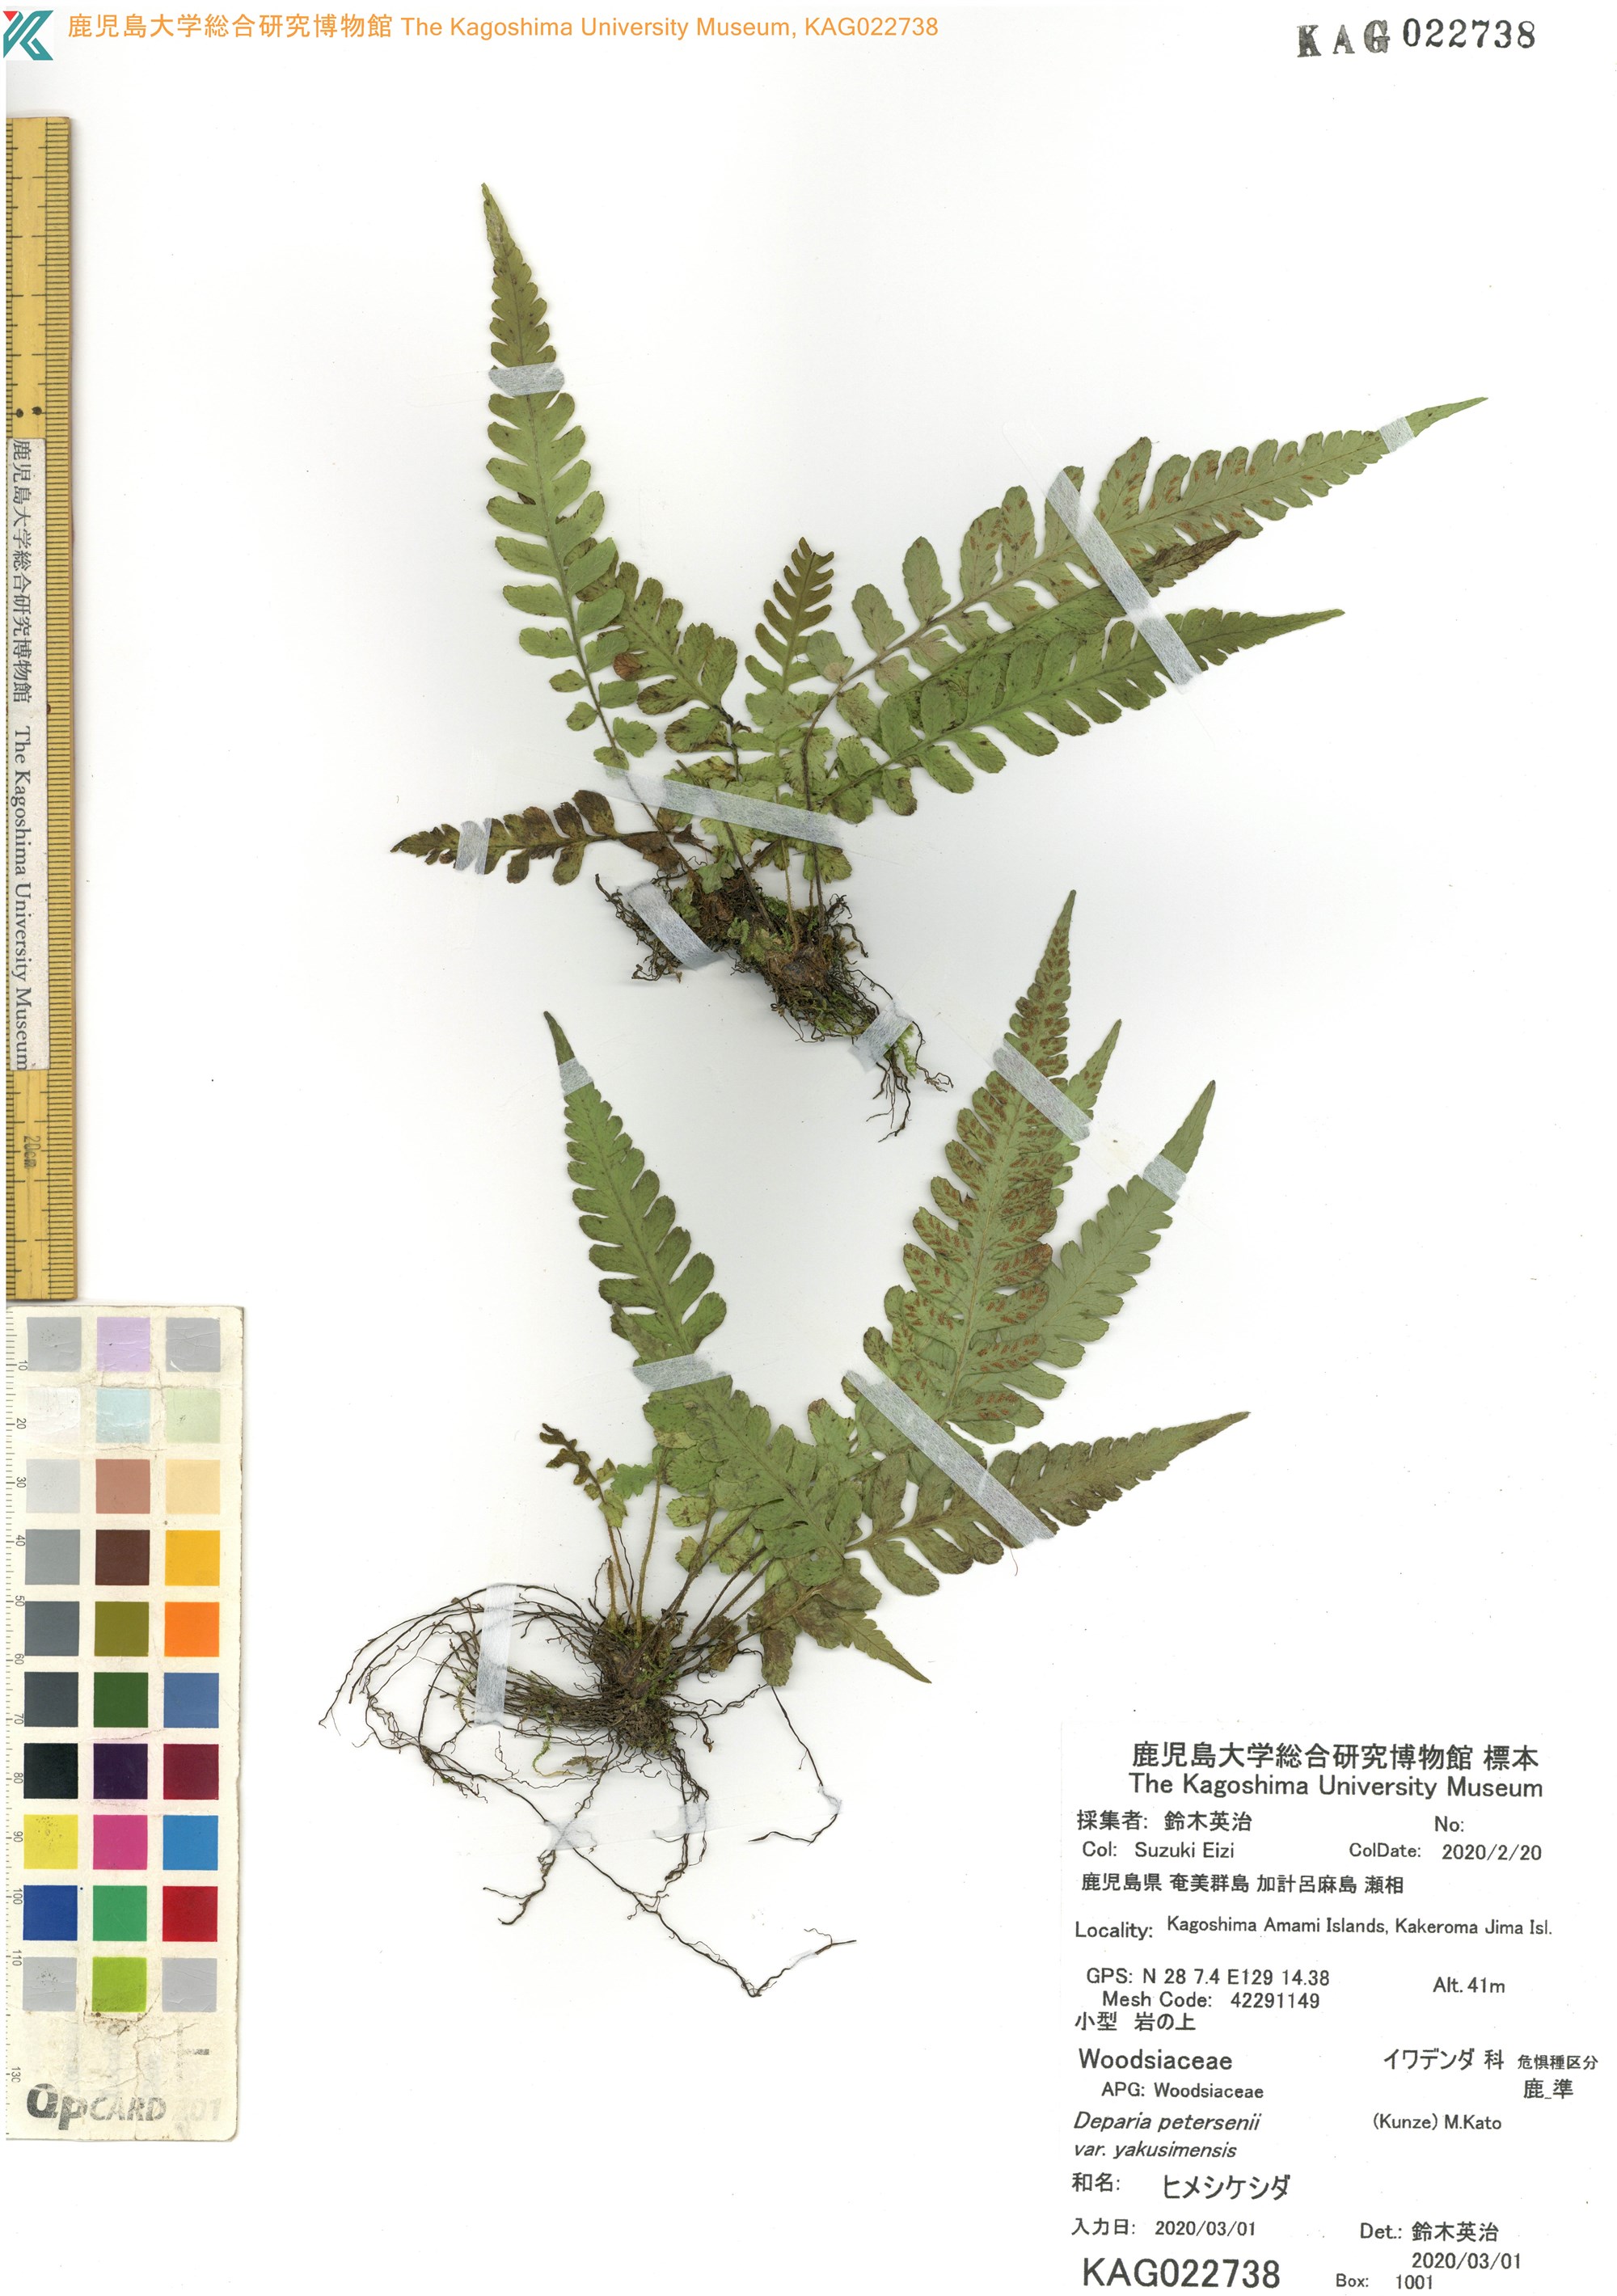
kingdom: Plantae
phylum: Tracheophyta
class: Polypodiopsida
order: Polypodiales
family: Athyriaceae
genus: Deparia
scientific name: Deparia petersenii
